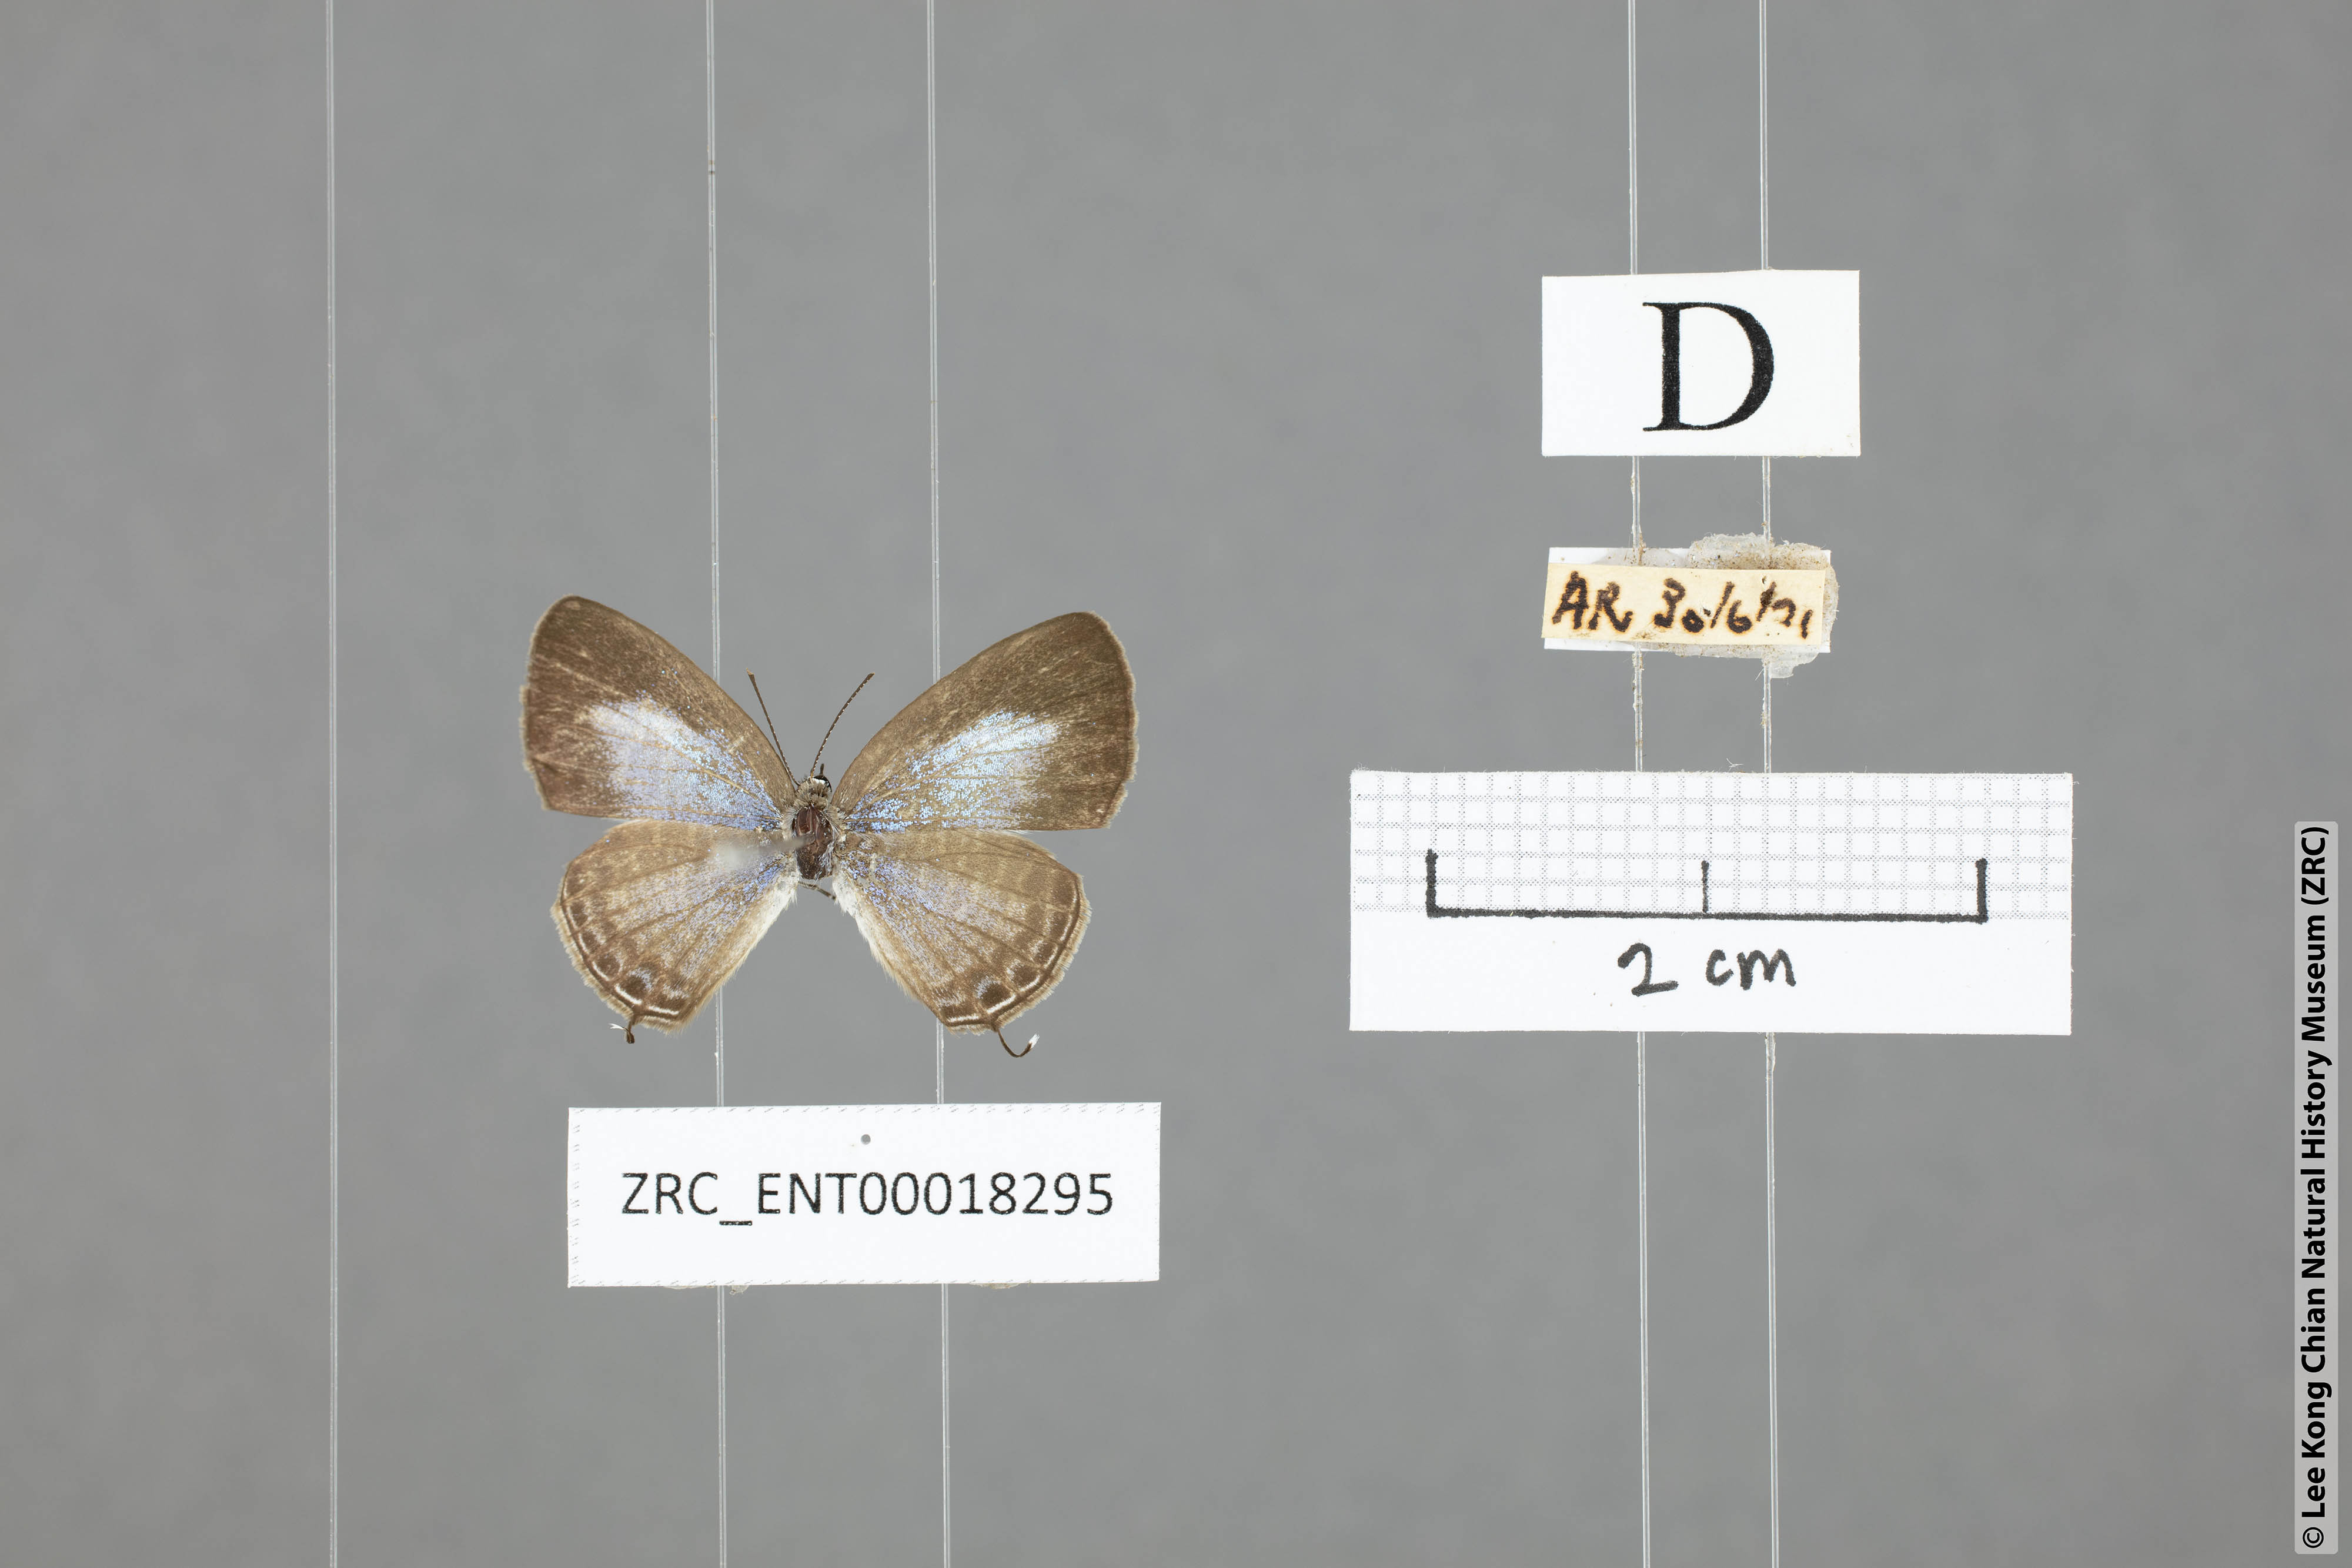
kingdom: Animalia
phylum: Arthropoda
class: Insecta
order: Lepidoptera
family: Lycaenidae
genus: Prosotas
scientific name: Prosotas aluta
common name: Barred lineblue
